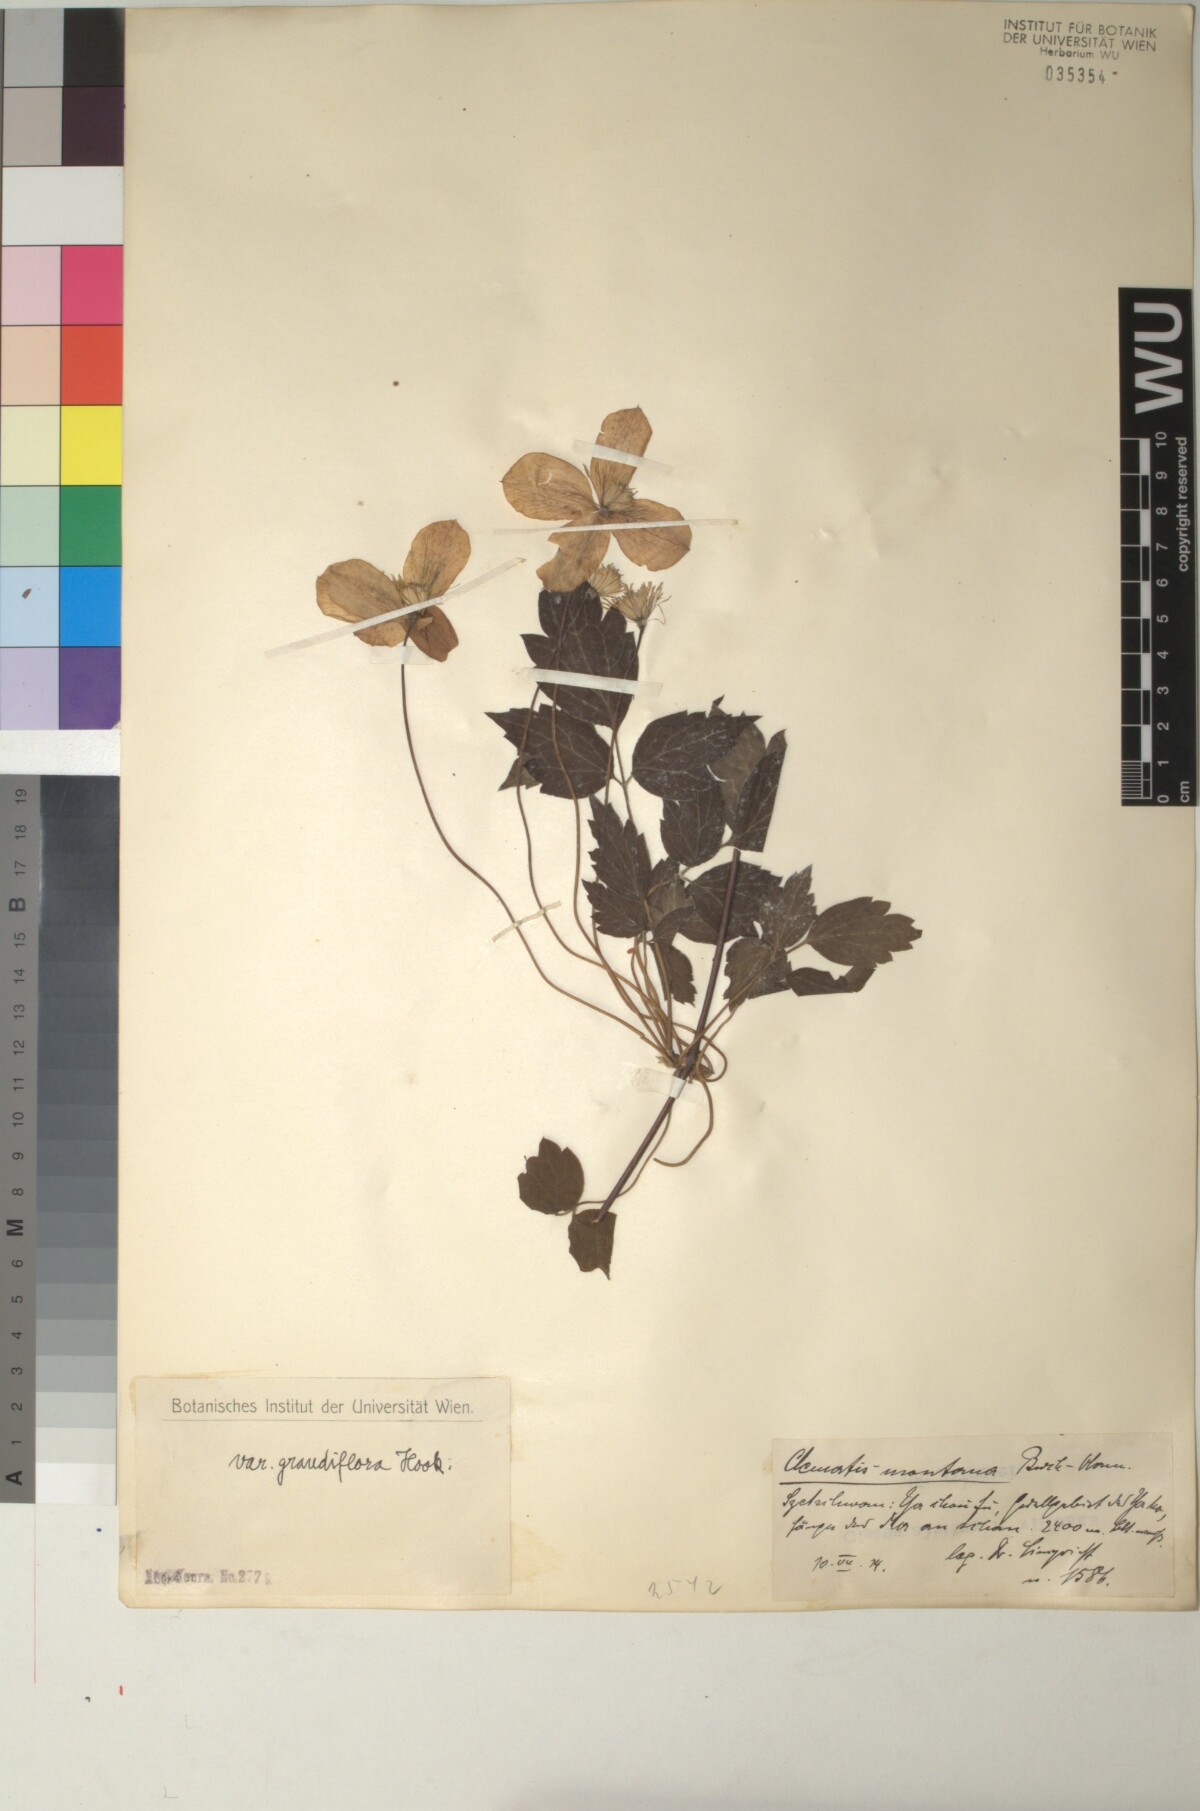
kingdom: Plantae
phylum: Tracheophyta
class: Magnoliopsida
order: Ranunculales
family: Ranunculaceae
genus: Clematis
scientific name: Clematis montana
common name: Himalayan clematis
